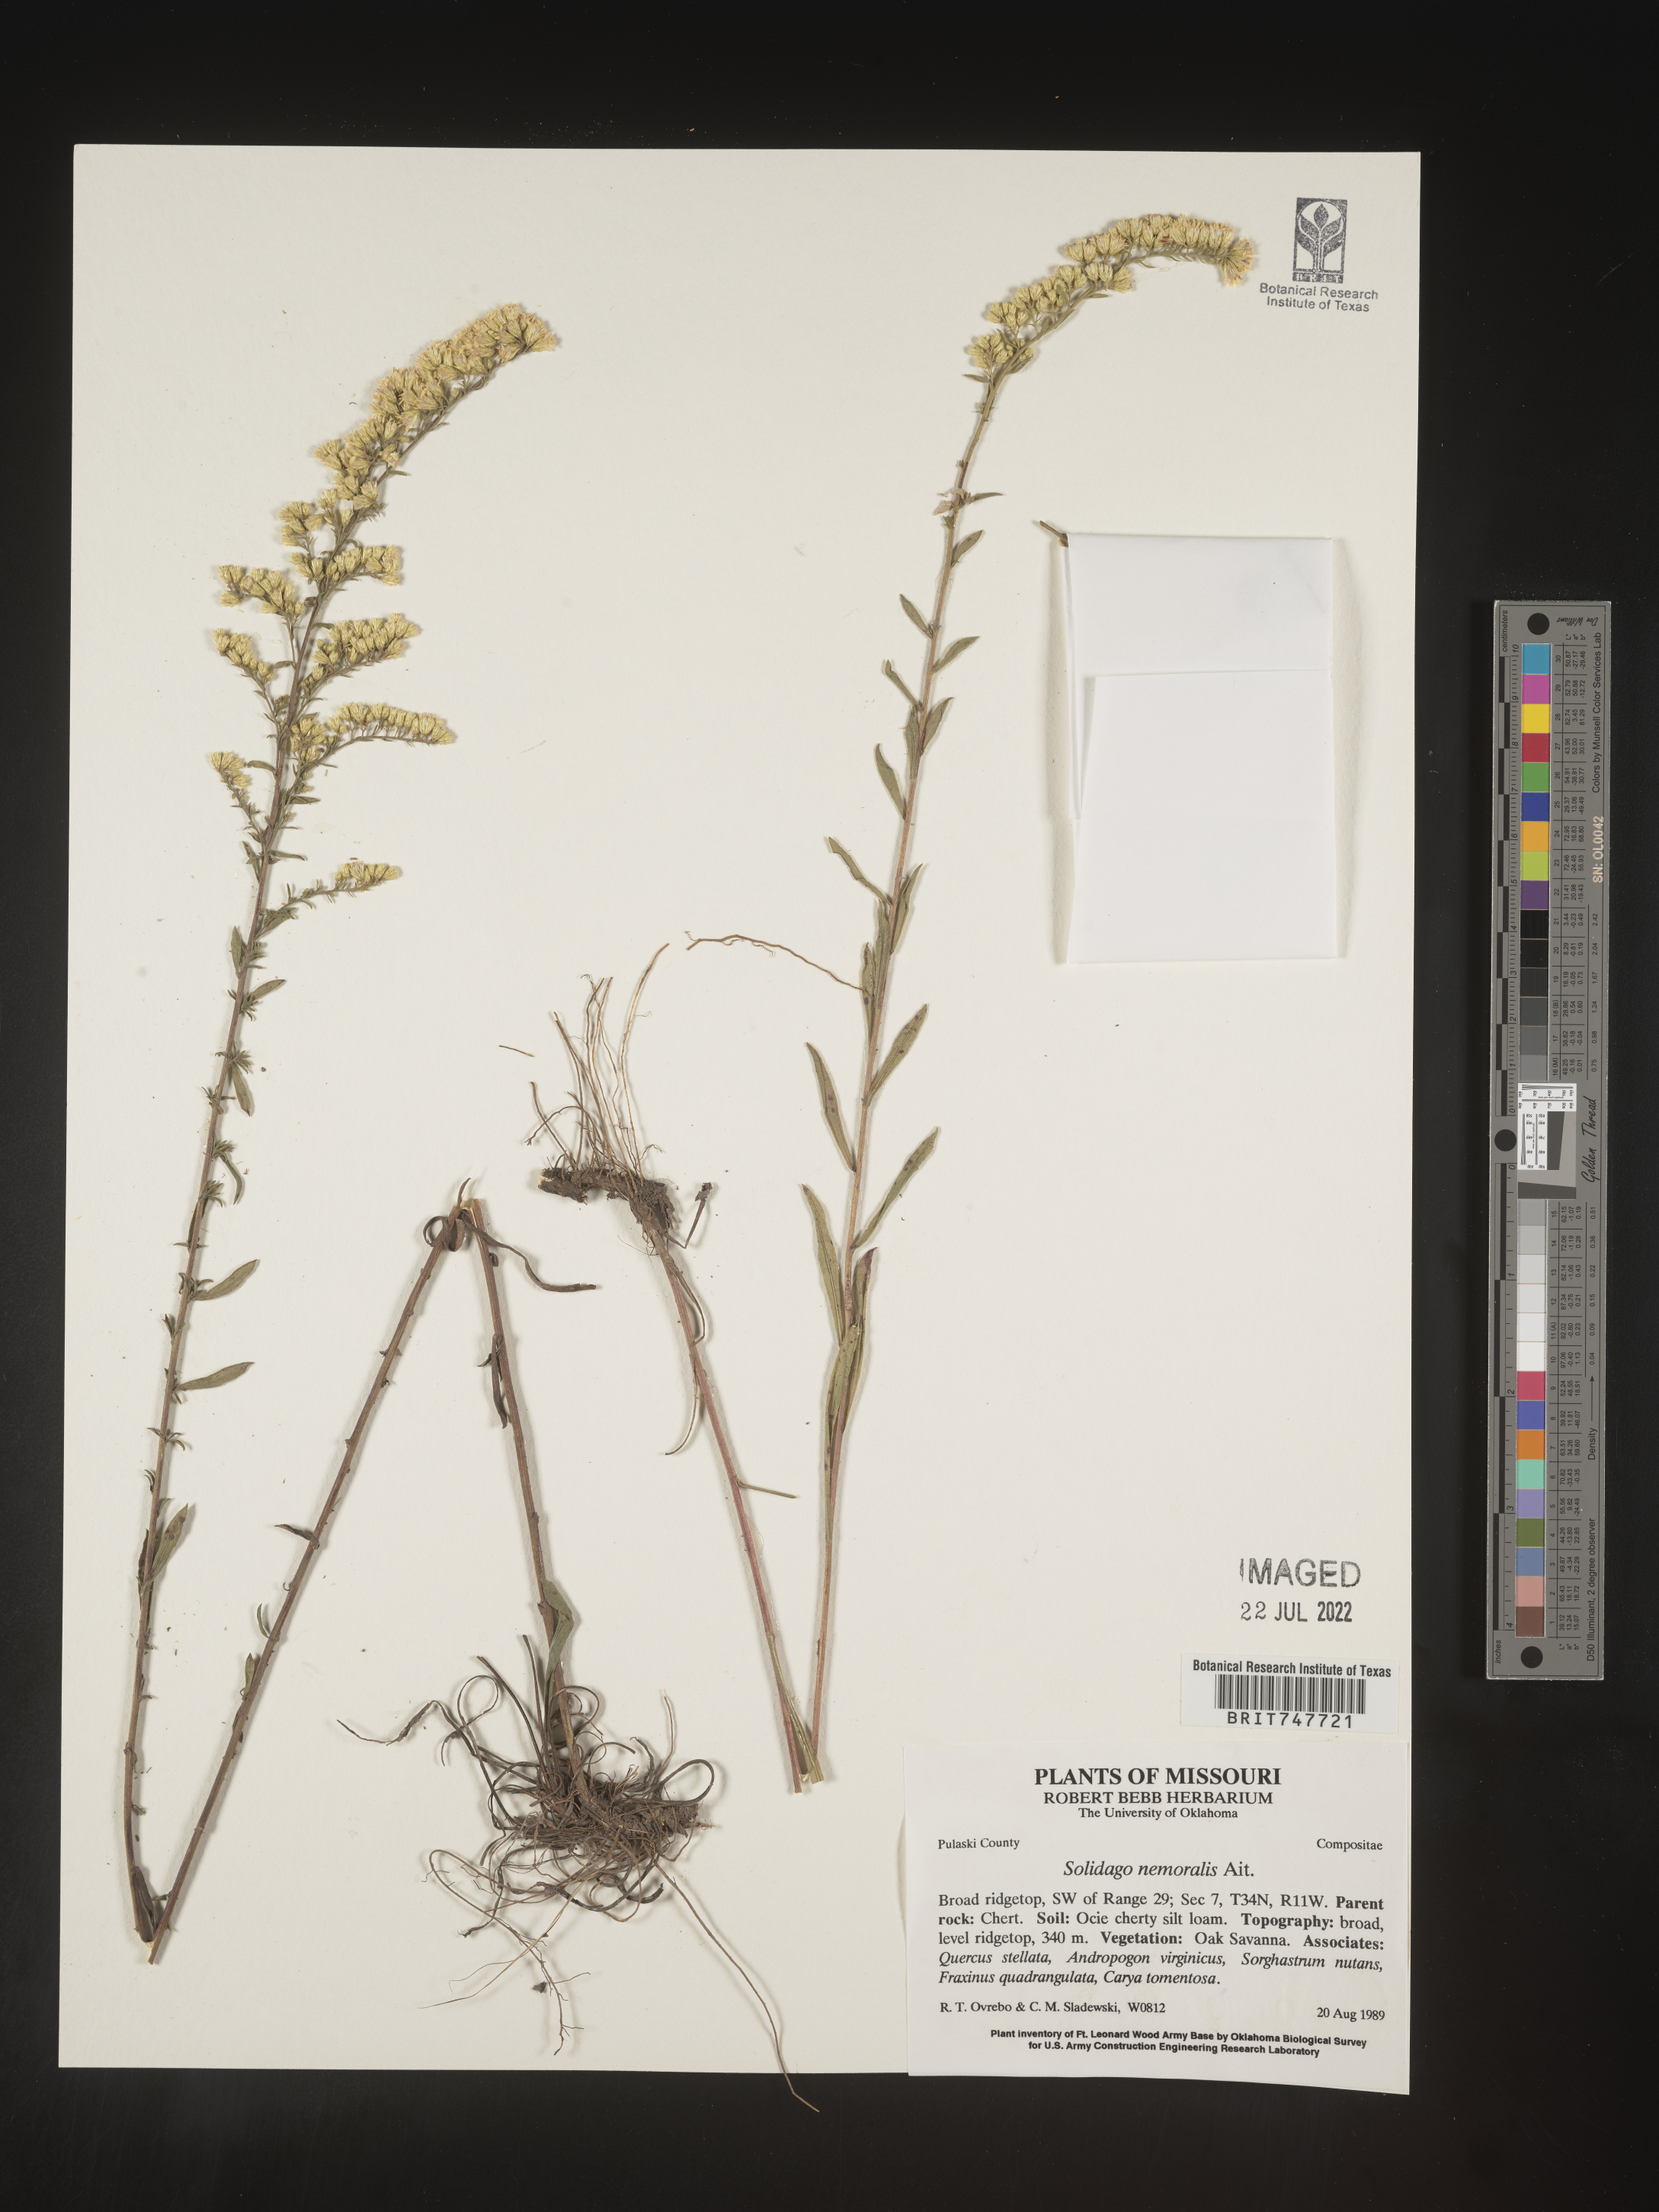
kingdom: Plantae
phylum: Tracheophyta
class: Magnoliopsida
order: Asterales
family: Asteraceae
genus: Solidago
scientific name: Solidago nemoralis
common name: Grey goldenrod
